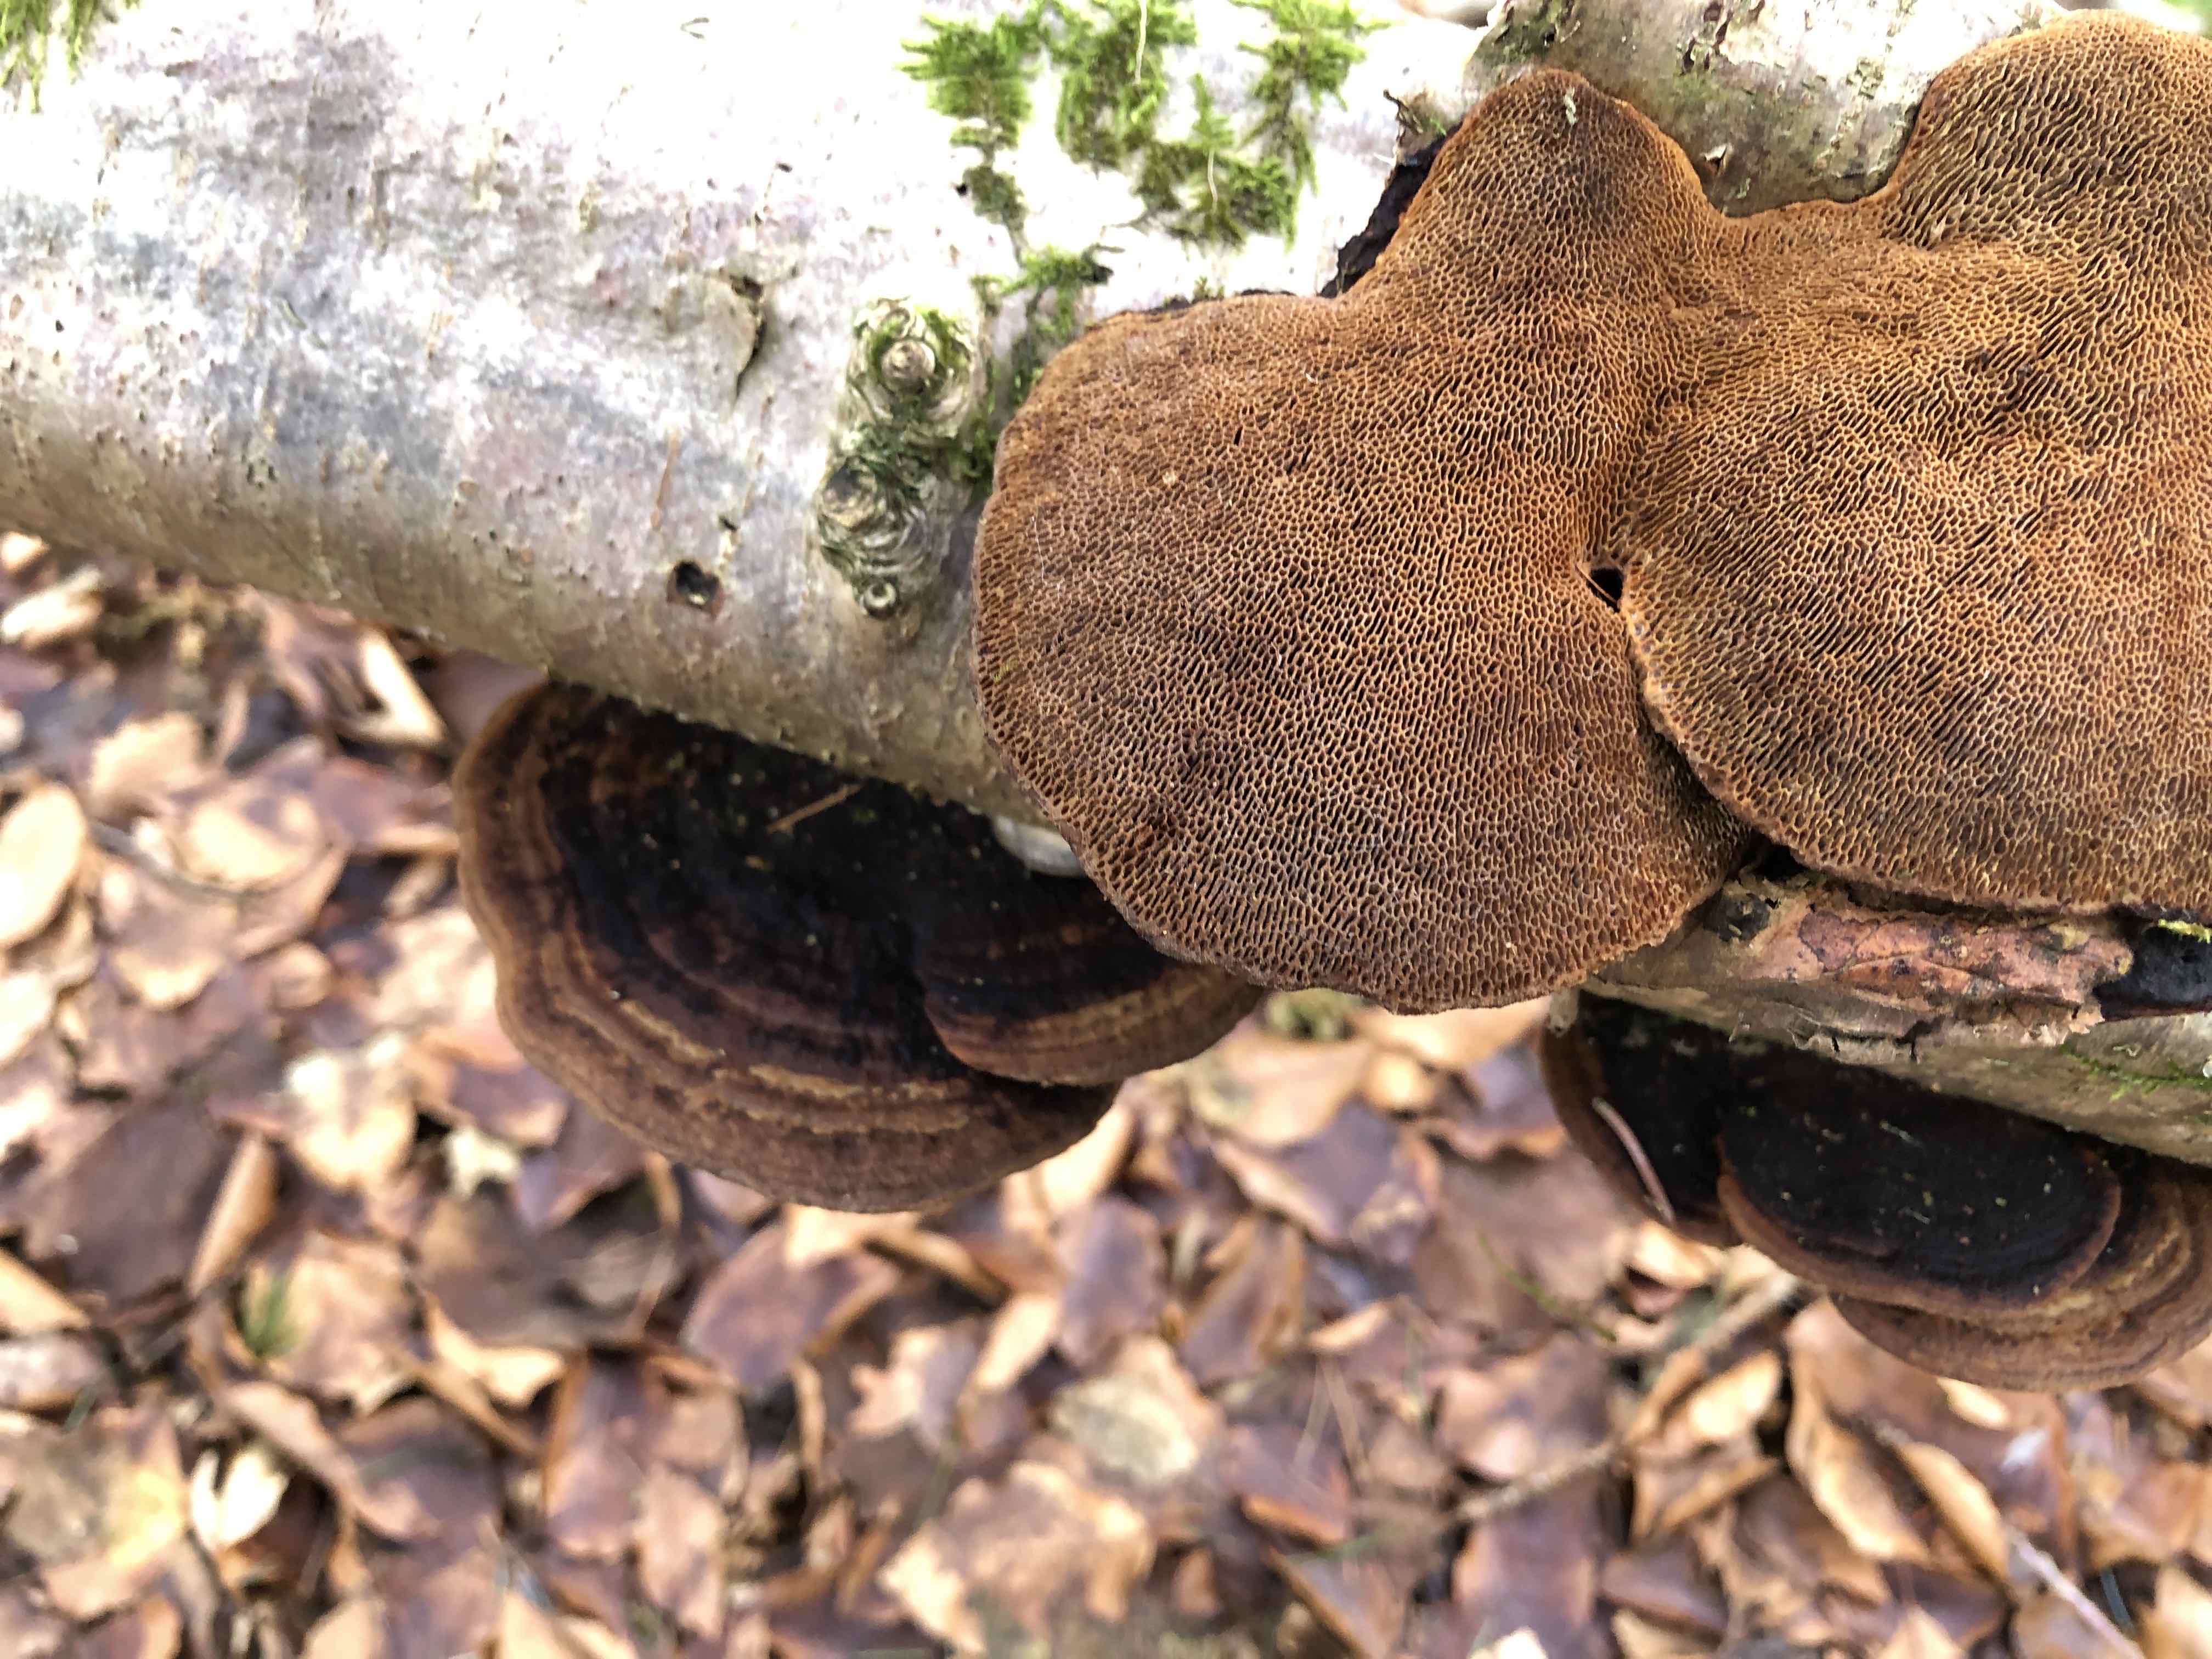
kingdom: Fungi
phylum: Basidiomycota
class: Agaricomycetes
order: Polyporales
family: Polyporaceae
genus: Daedaleopsis
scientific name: Daedaleopsis confragosa
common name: rødmende læderporesvamp
